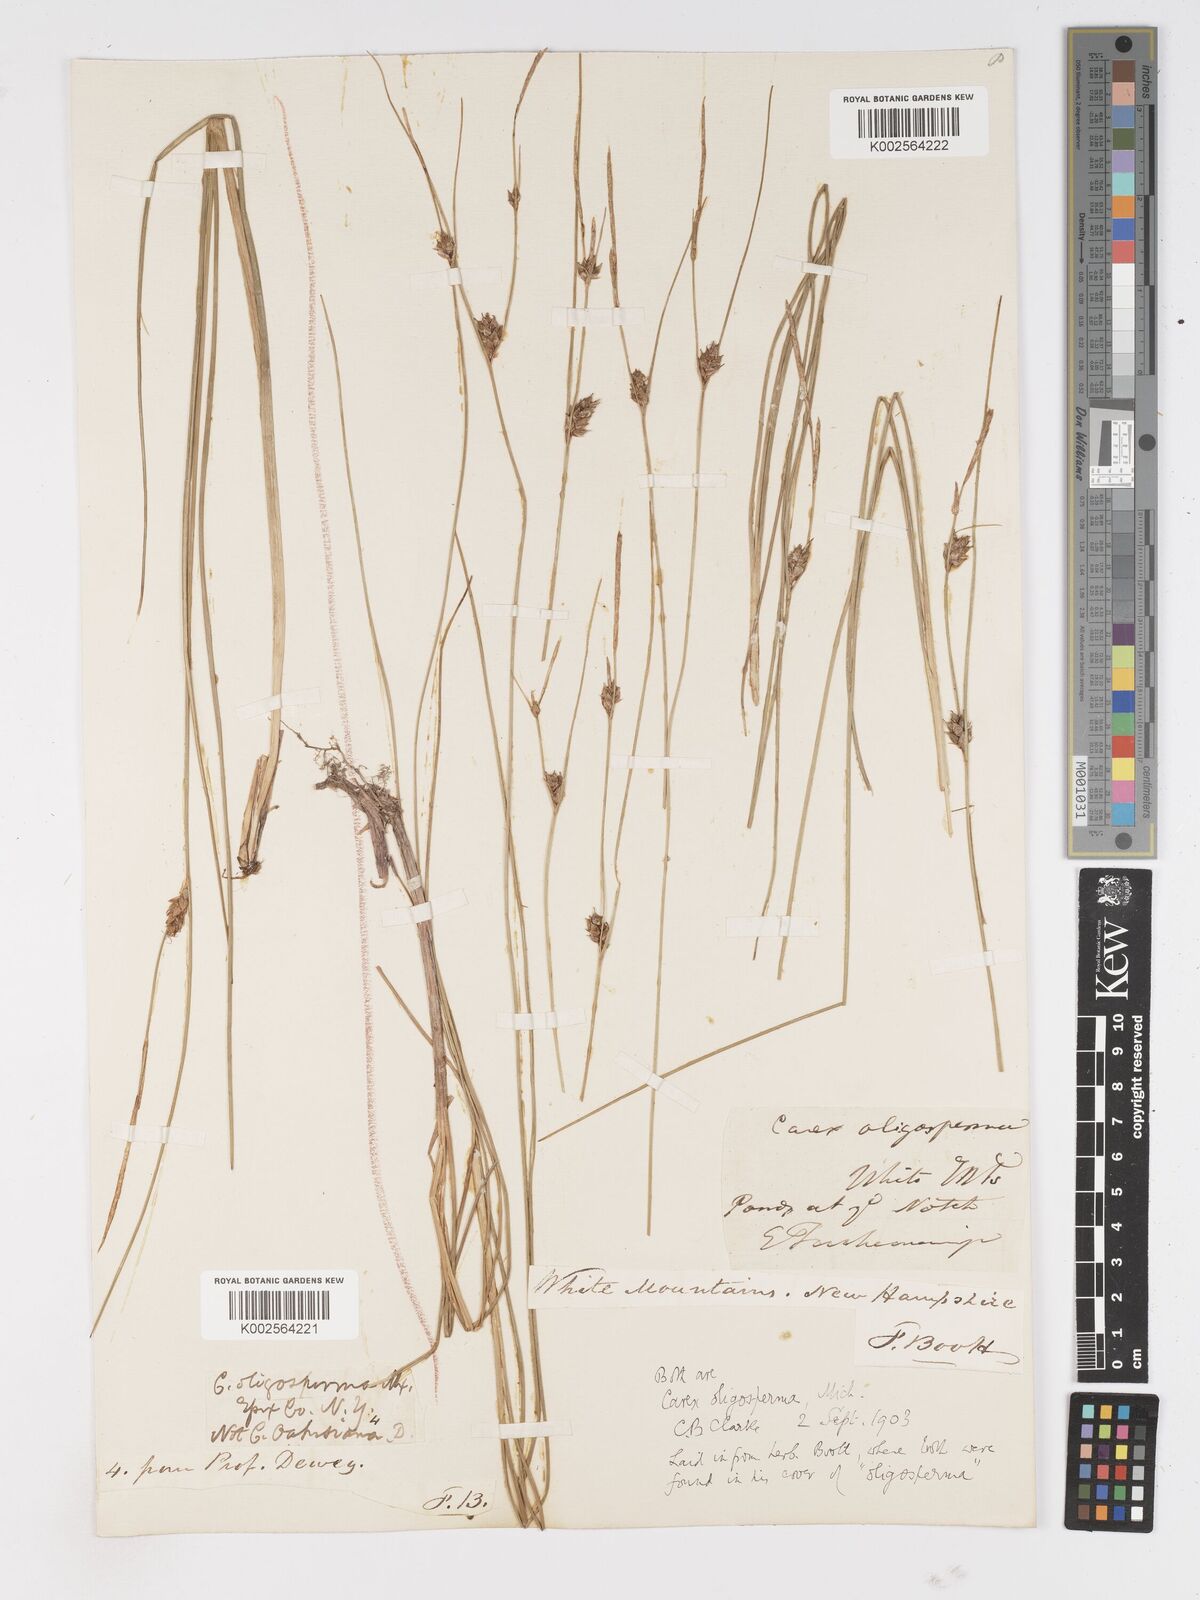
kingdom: Plantae
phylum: Tracheophyta
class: Liliopsida
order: Poales
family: Cyperaceae
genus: Carex
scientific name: Carex oligosperma
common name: Few-seed sedge
